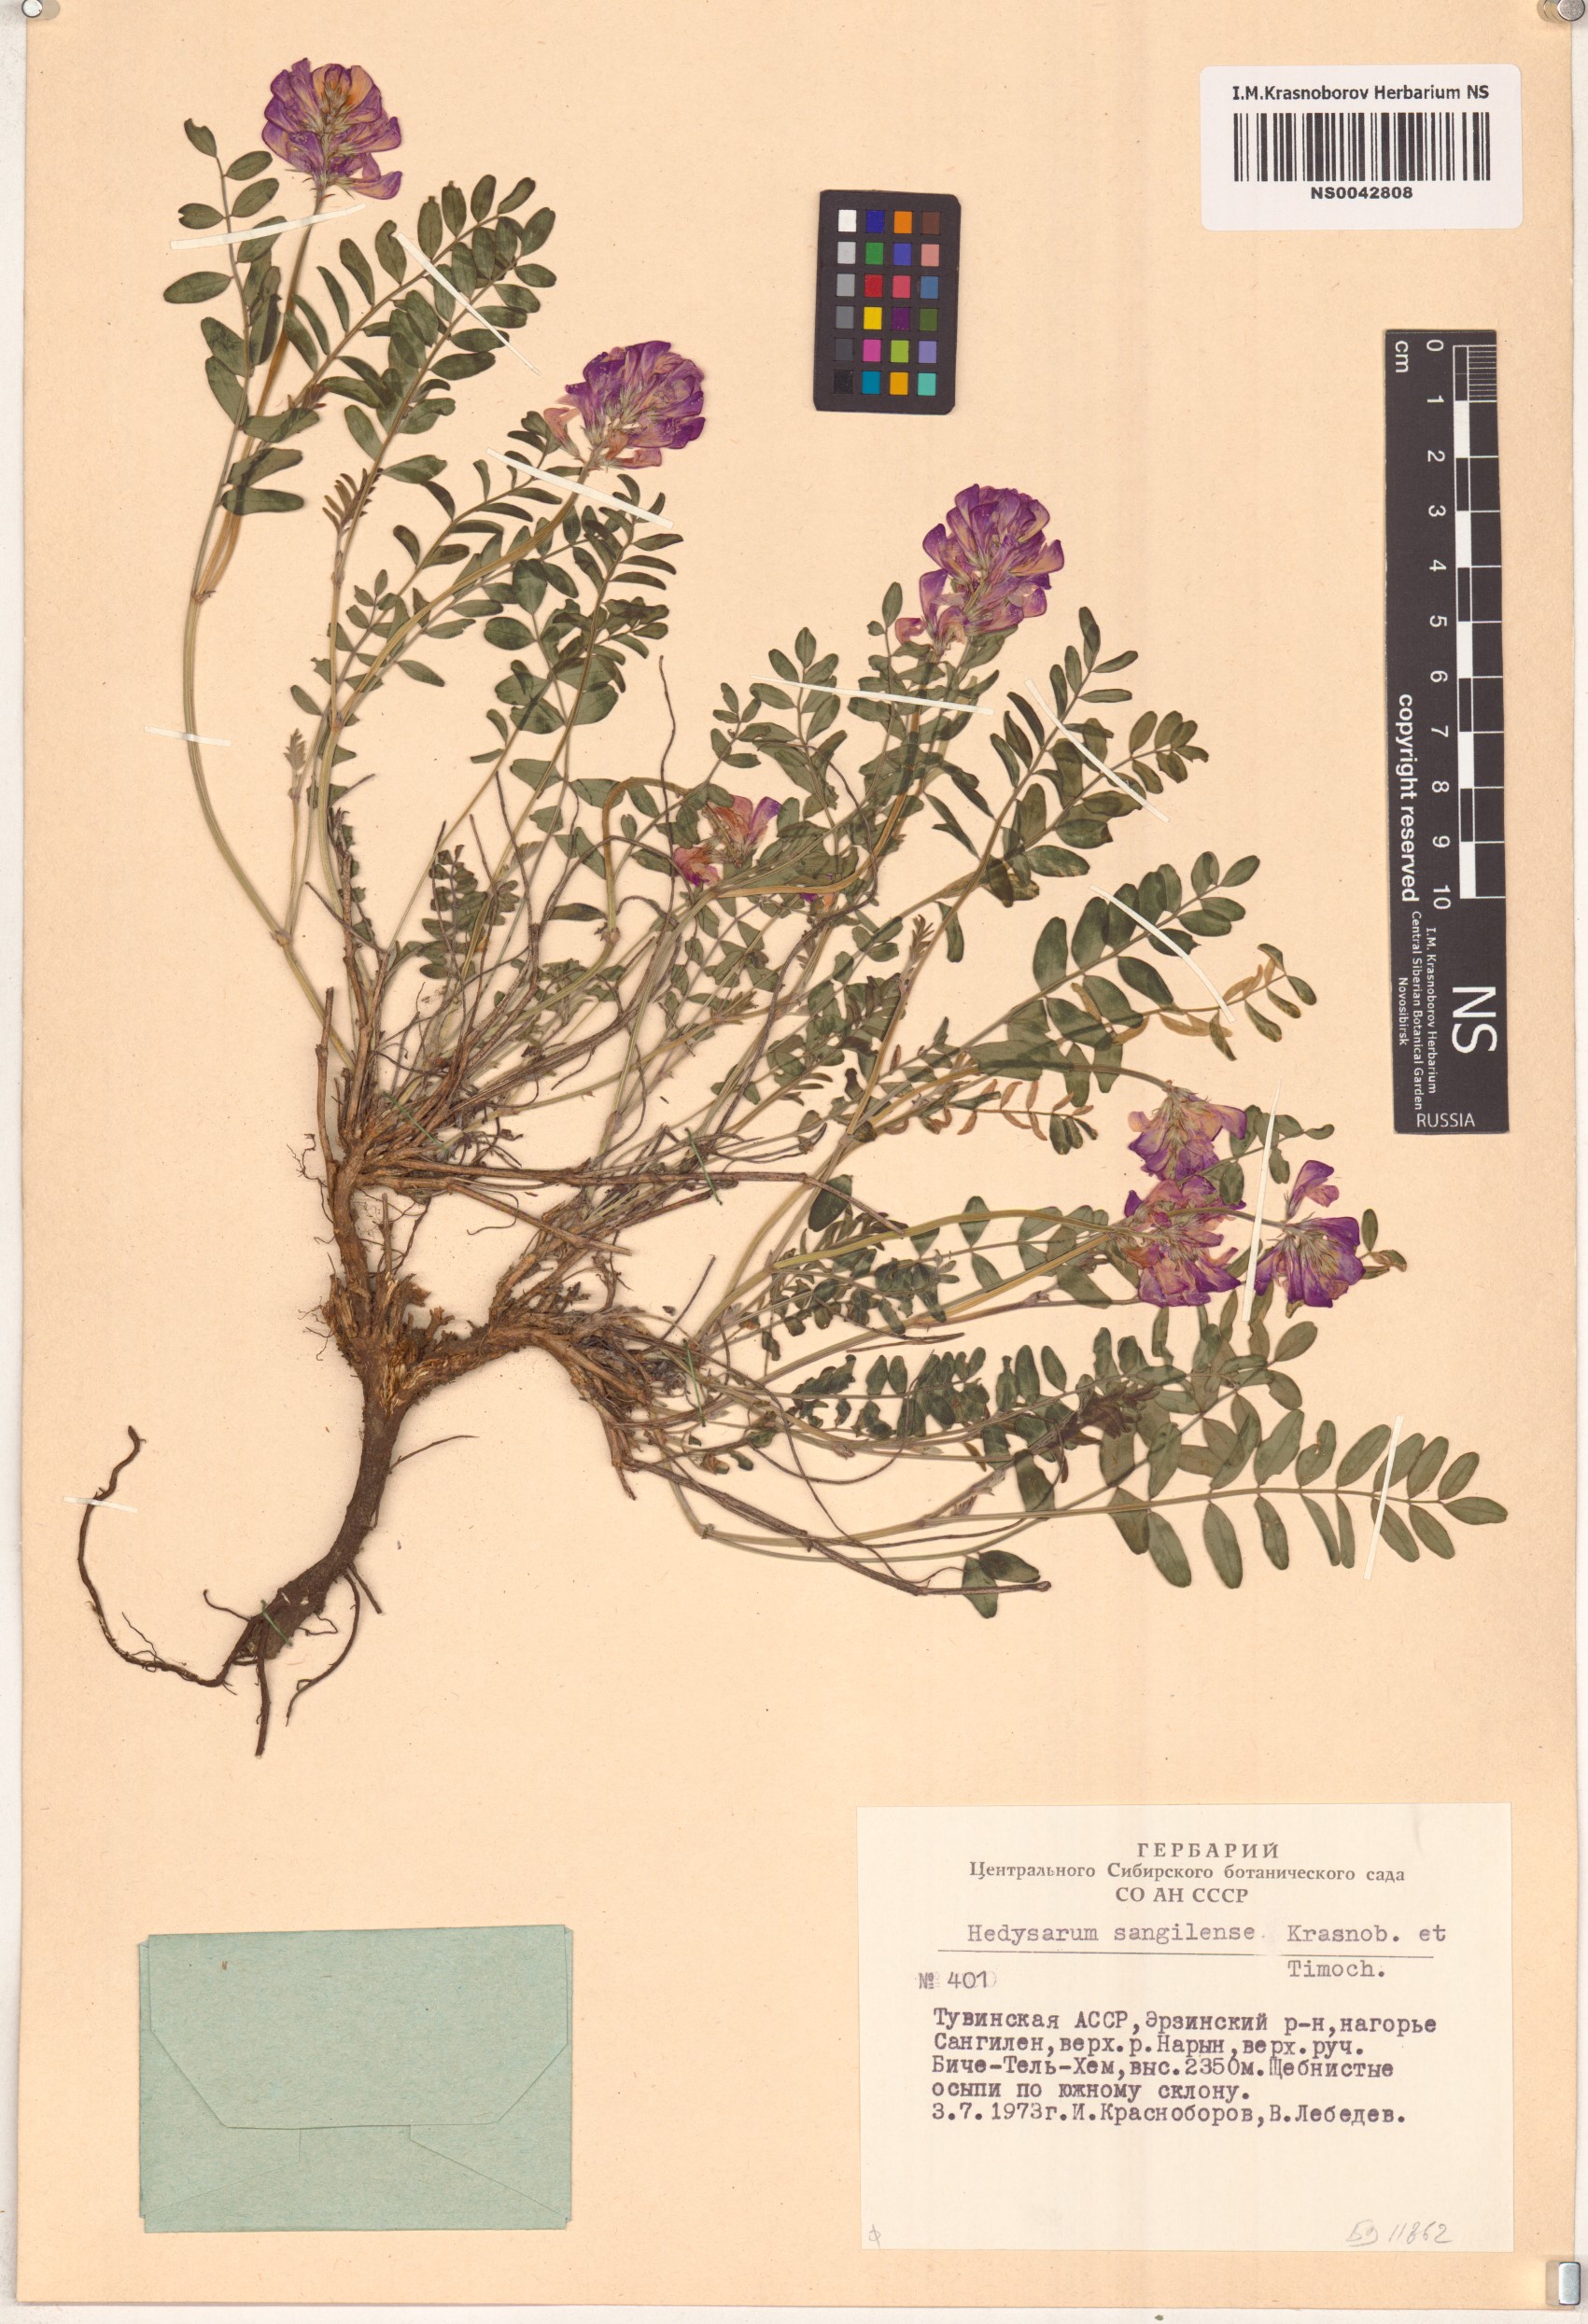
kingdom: Plantae
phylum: Tracheophyta
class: Magnoliopsida
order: Fabales
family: Fabaceae
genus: Hedysarum
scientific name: Hedysarum sangilense
